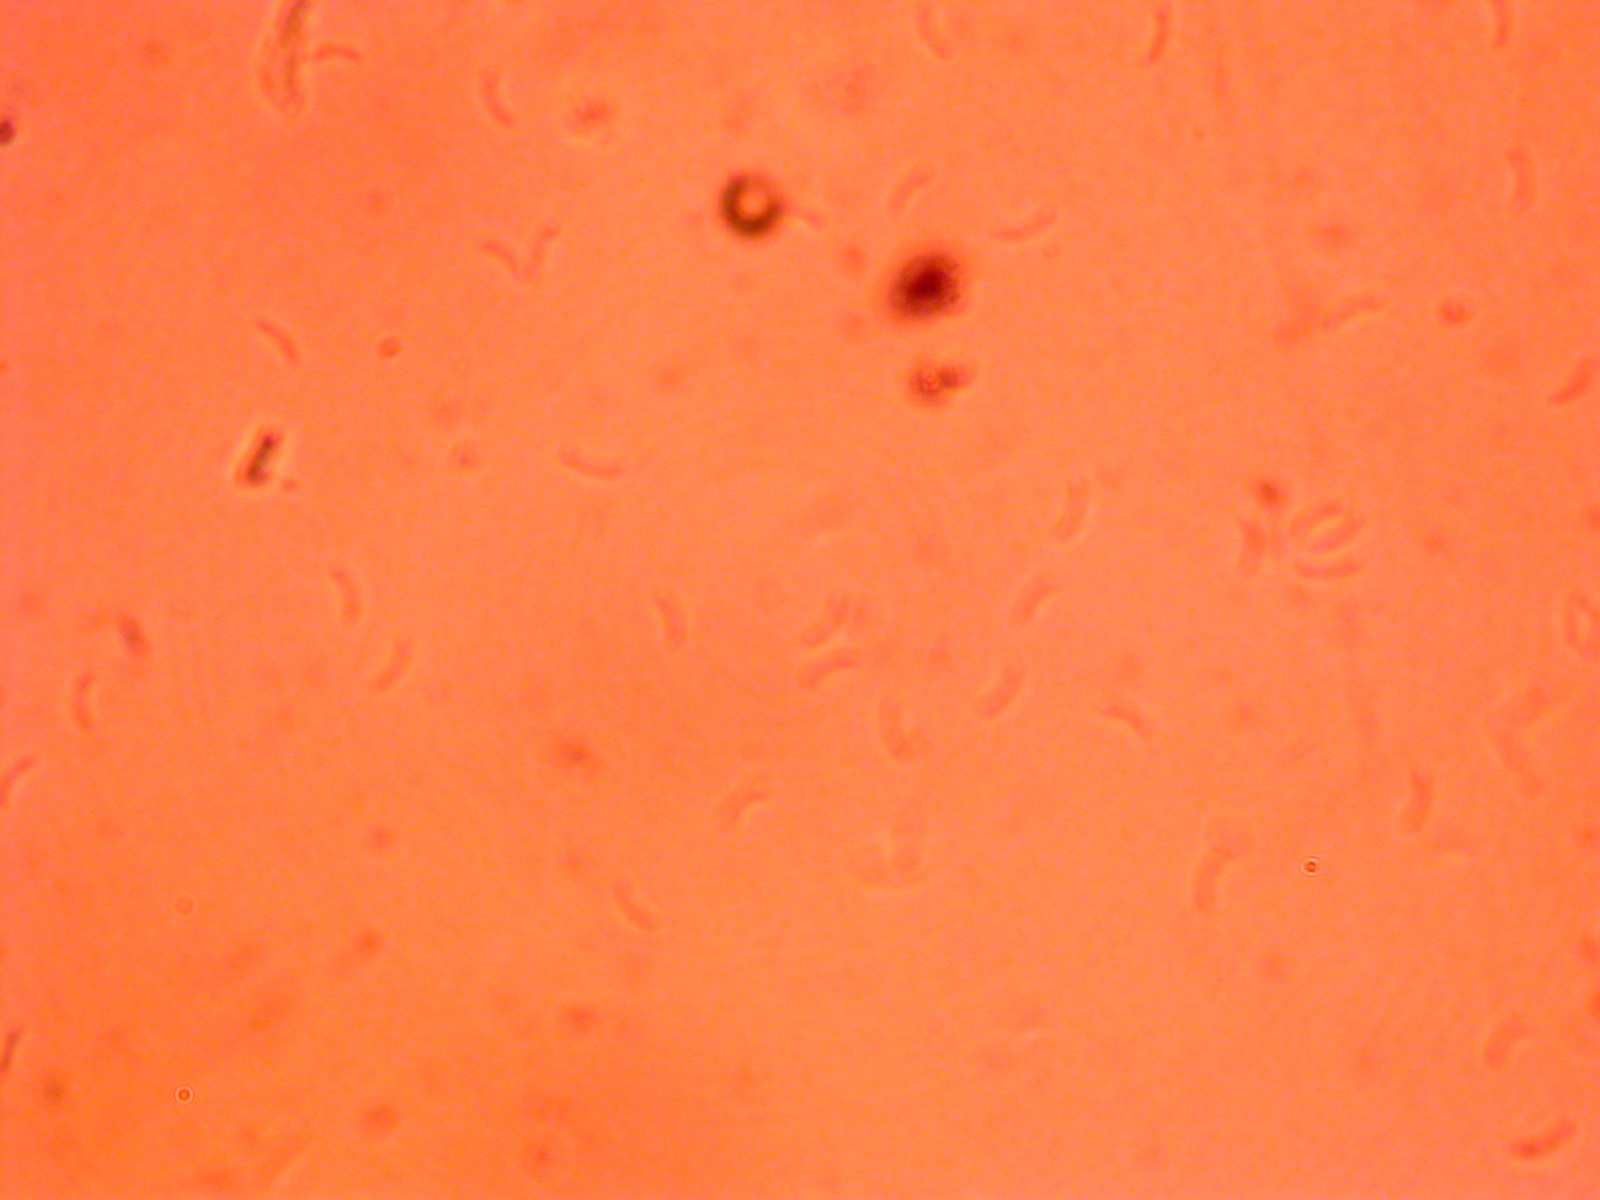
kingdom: Fungi
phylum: Basidiomycota
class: Agaricomycetes
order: Polyporales
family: Incrustoporiaceae
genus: Skeletocutis
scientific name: Skeletocutis nemoralis
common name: stor krystalporesvamp
